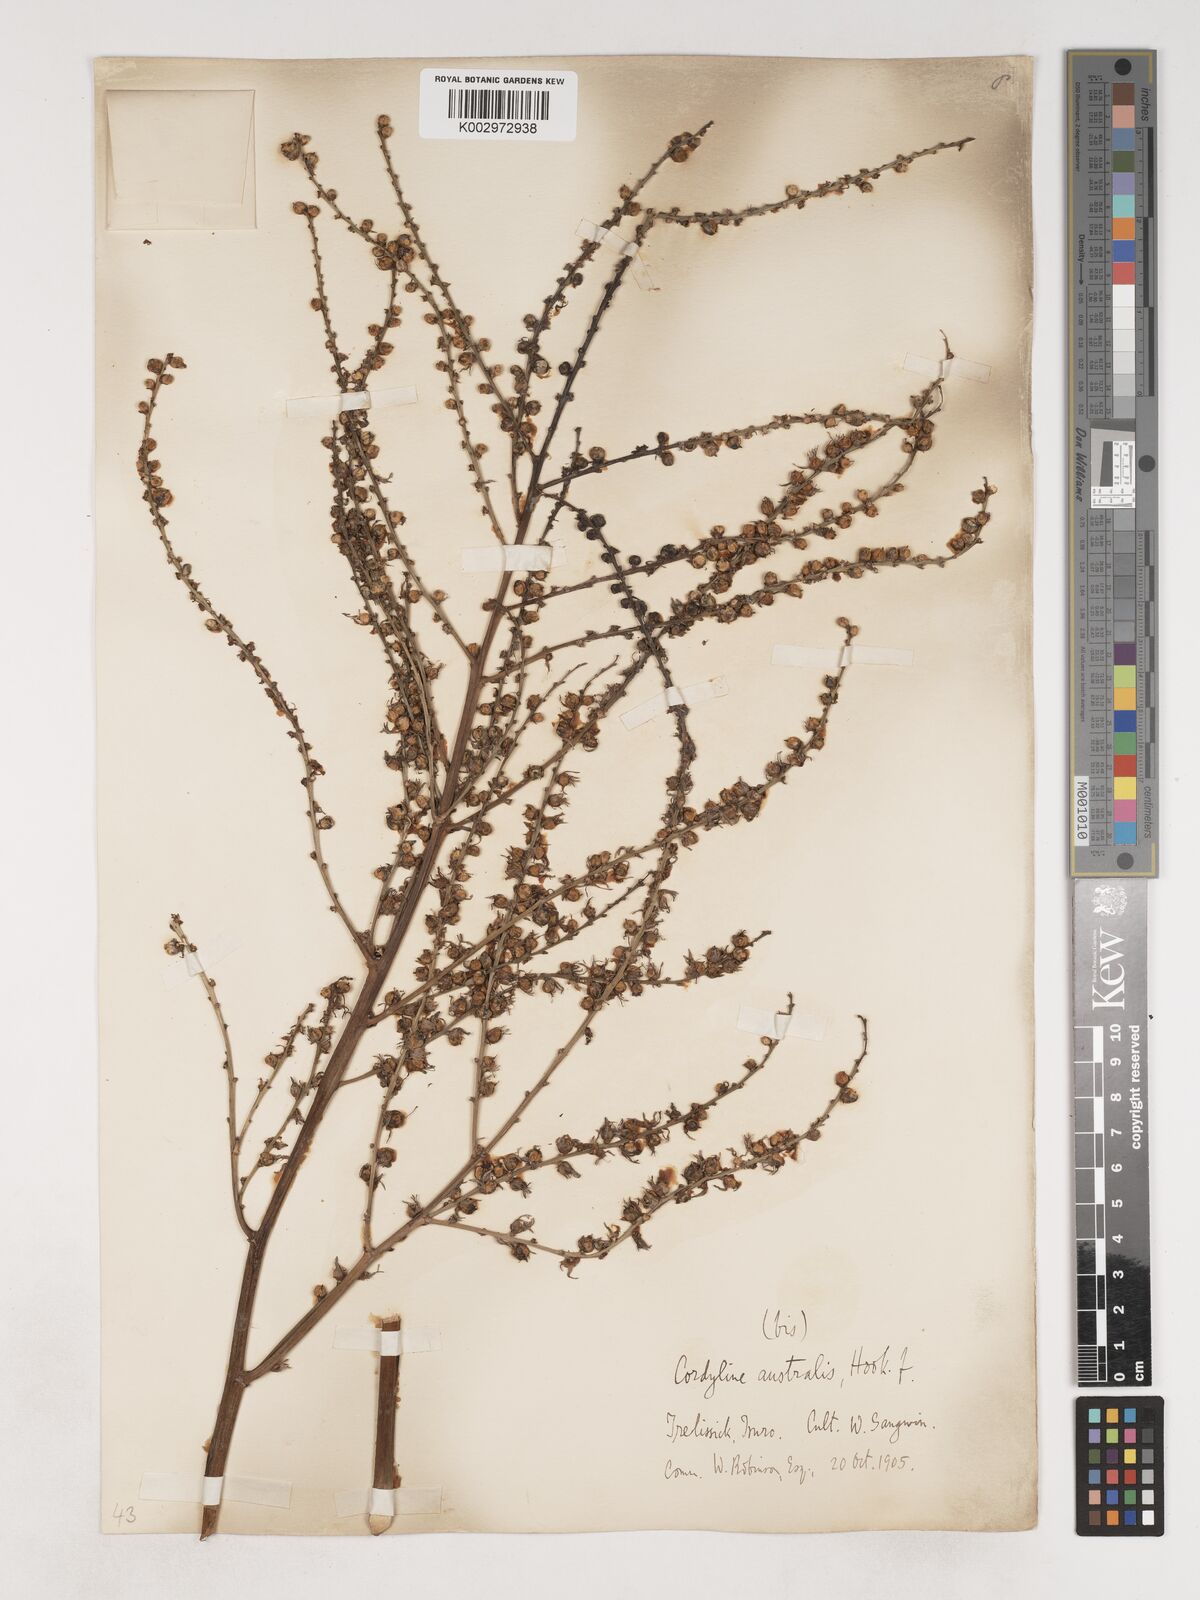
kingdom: Plantae
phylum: Tracheophyta
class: Liliopsida
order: Asparagales
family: Asparagaceae
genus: Cordyline
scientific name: Cordyline australis
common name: Cabbage-palm
